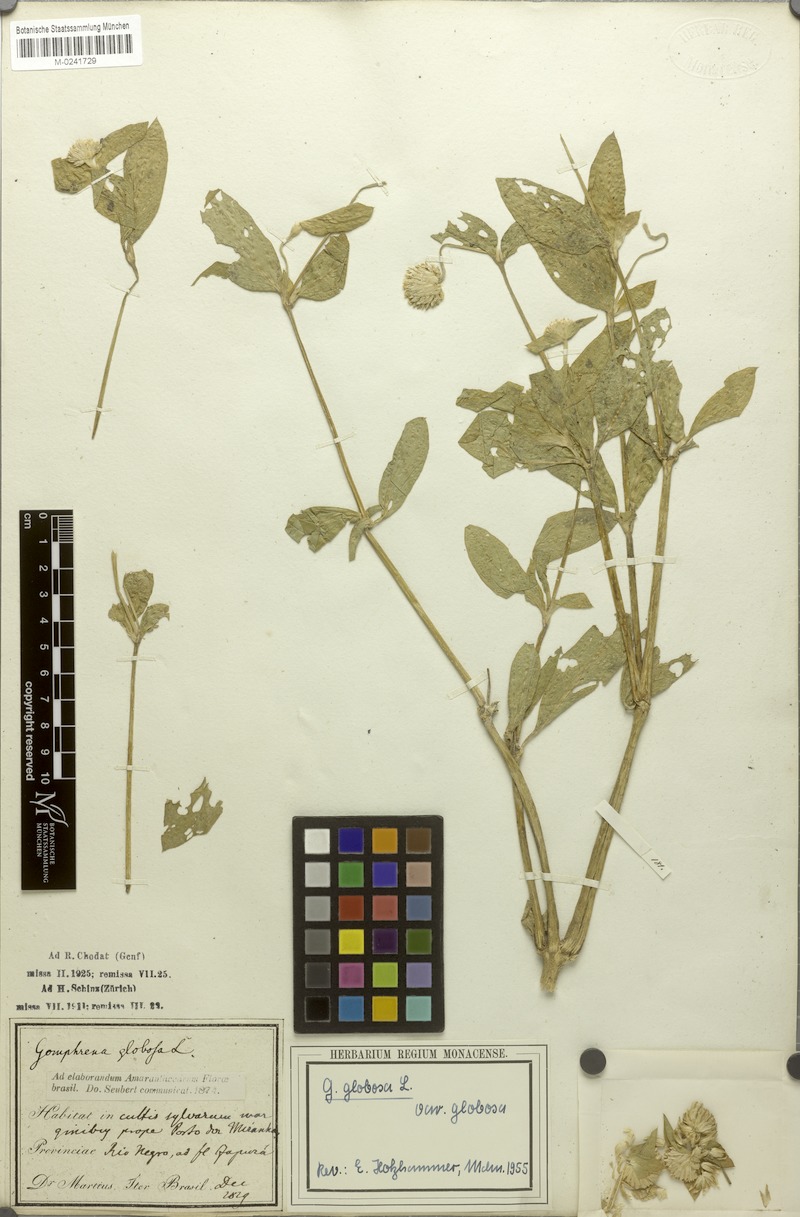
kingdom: Plantae
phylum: Tracheophyta
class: Magnoliopsida
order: Caryophyllales
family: Amaranthaceae
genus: Gomphrena
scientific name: Gomphrena globosa
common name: Common globe amaranth
